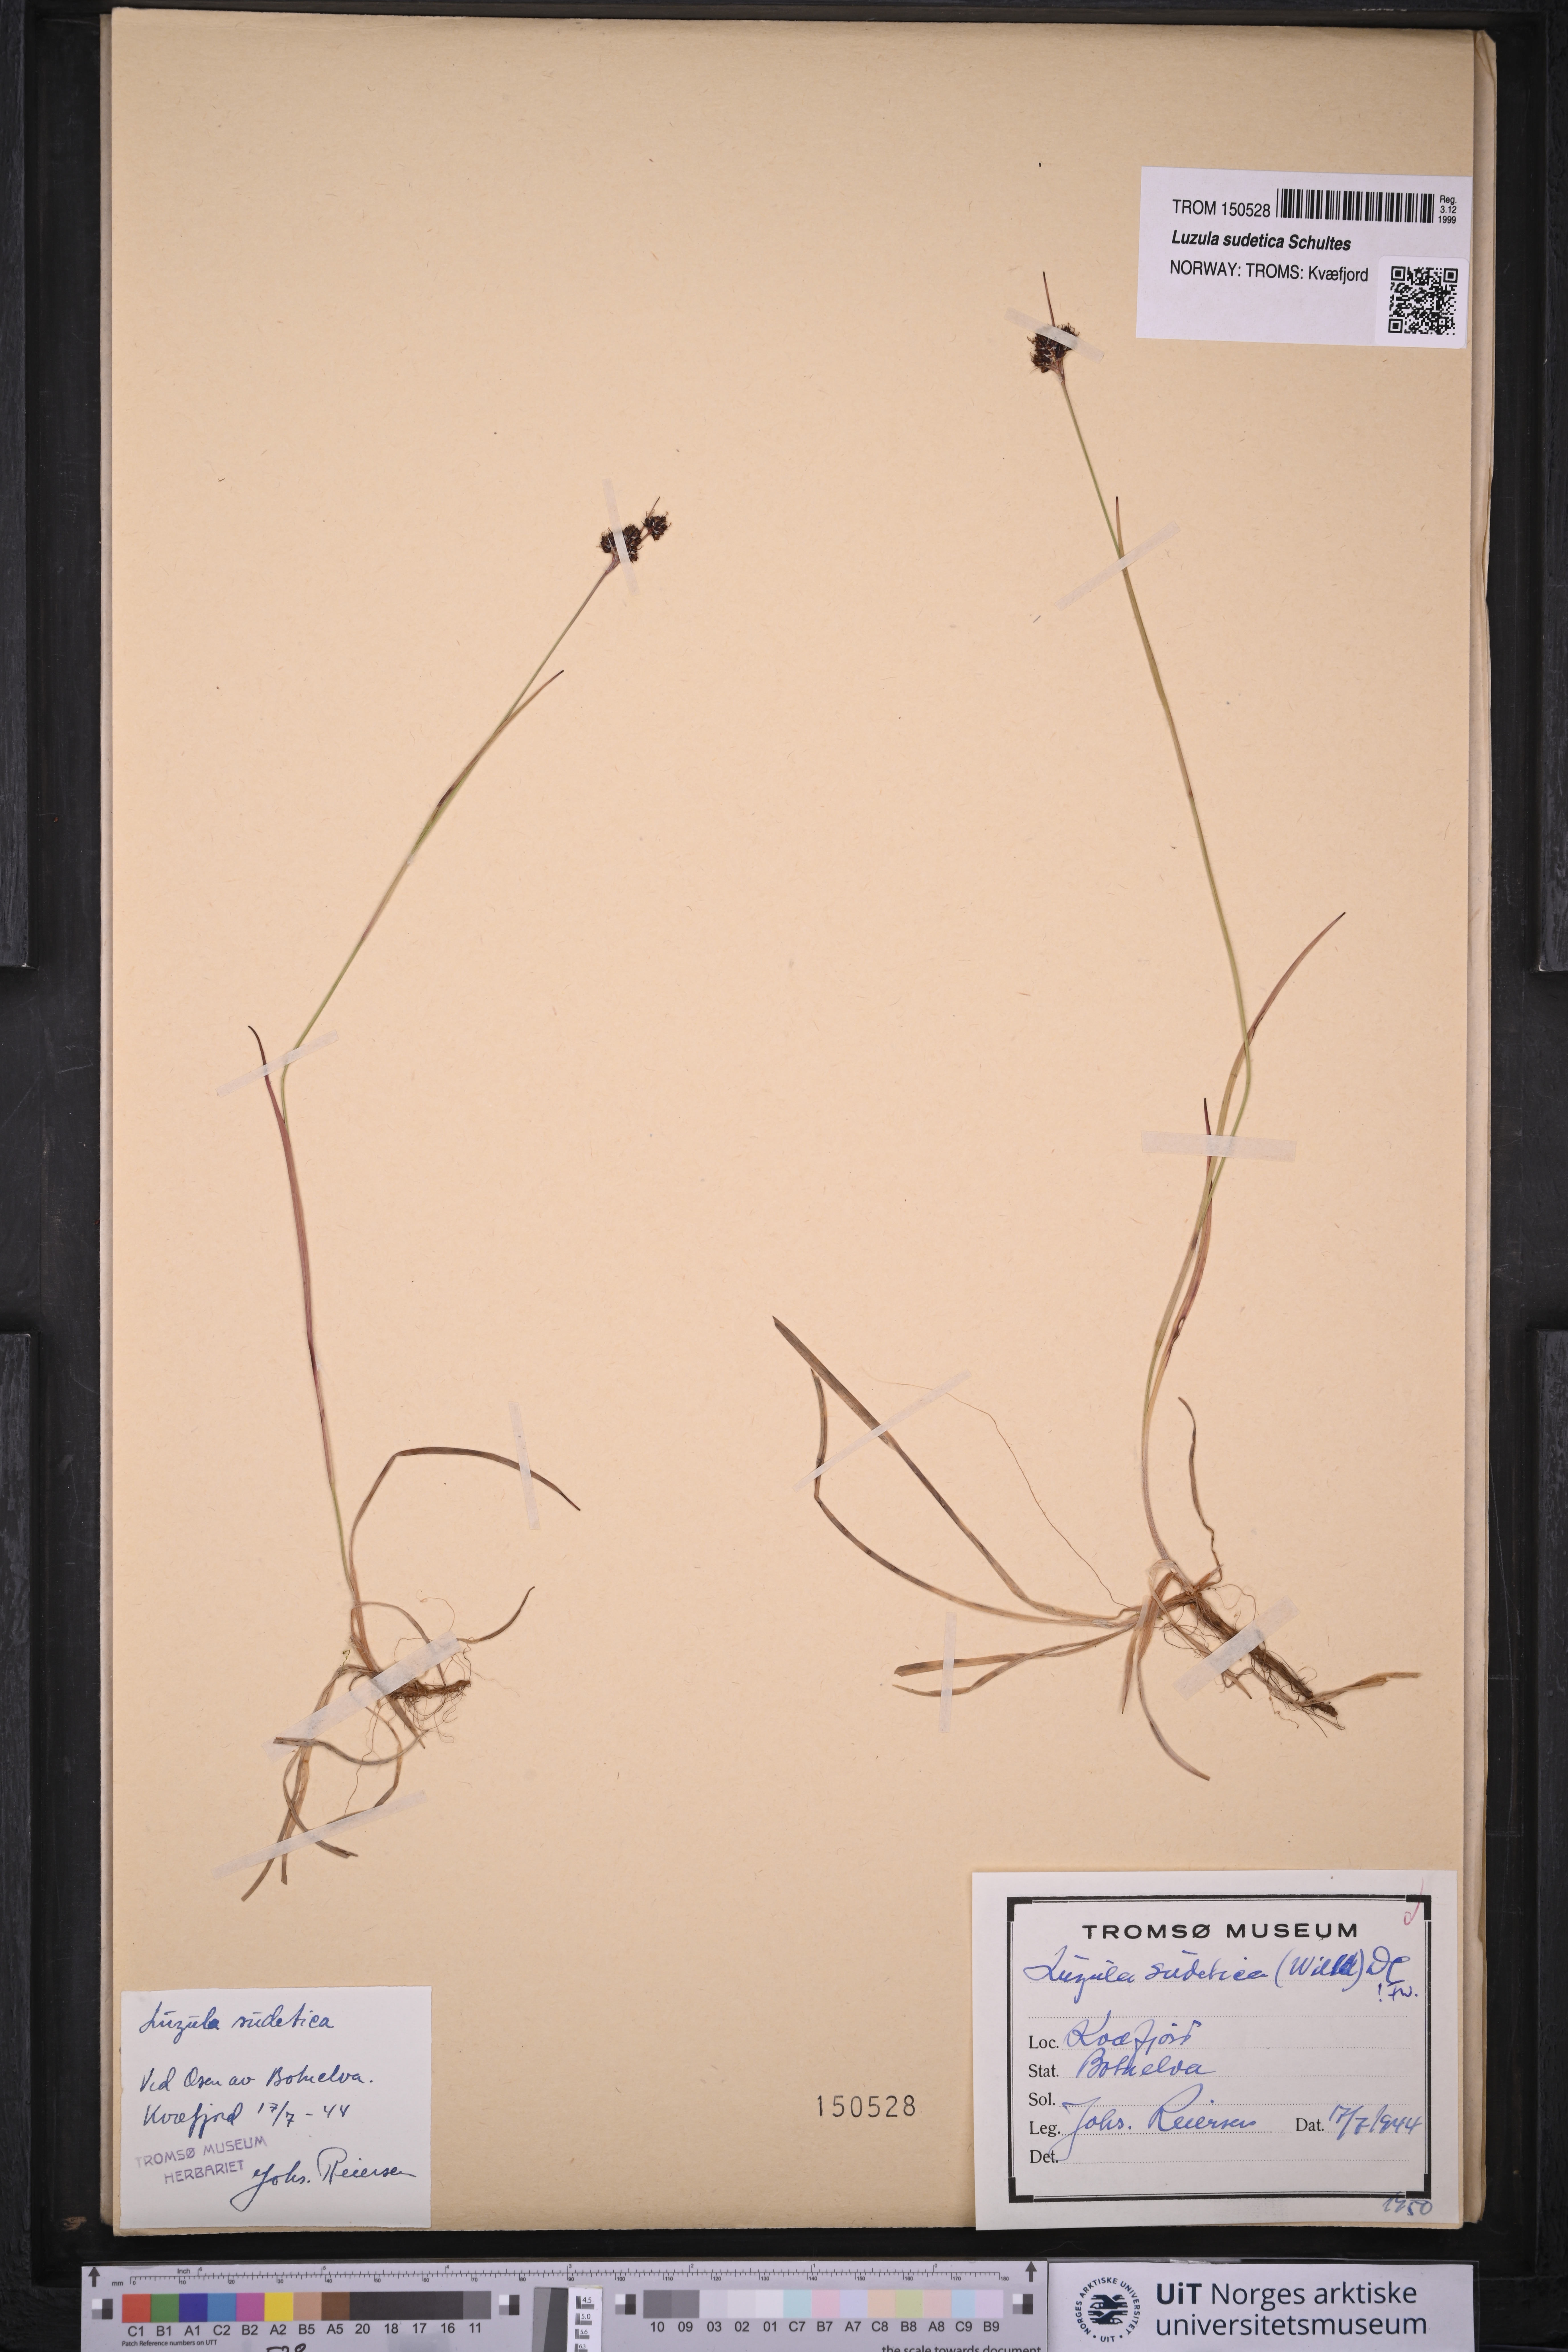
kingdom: Plantae
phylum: Tracheophyta
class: Liliopsida
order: Poales
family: Juncaceae
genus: Luzula
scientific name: Luzula sudetica
